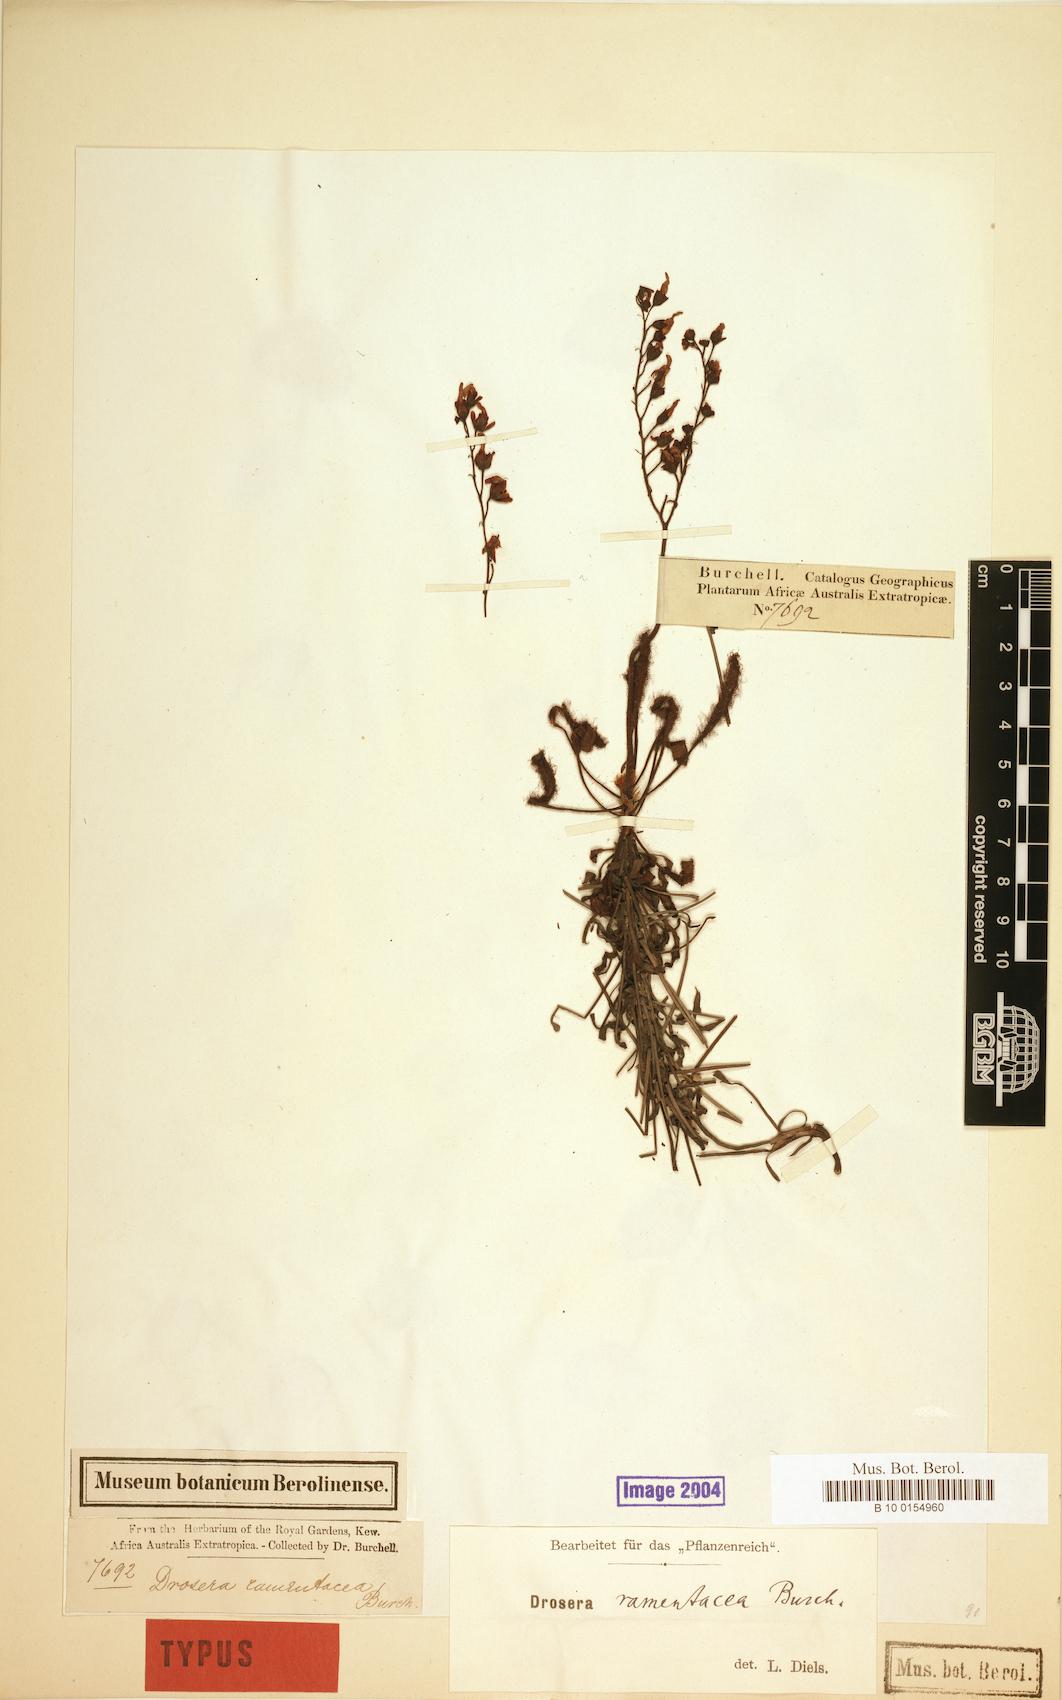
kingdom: Plantae
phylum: Tracheophyta
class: Magnoliopsida
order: Caryophyllales
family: Droseraceae
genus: Drosera
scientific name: Drosera ramentacea
